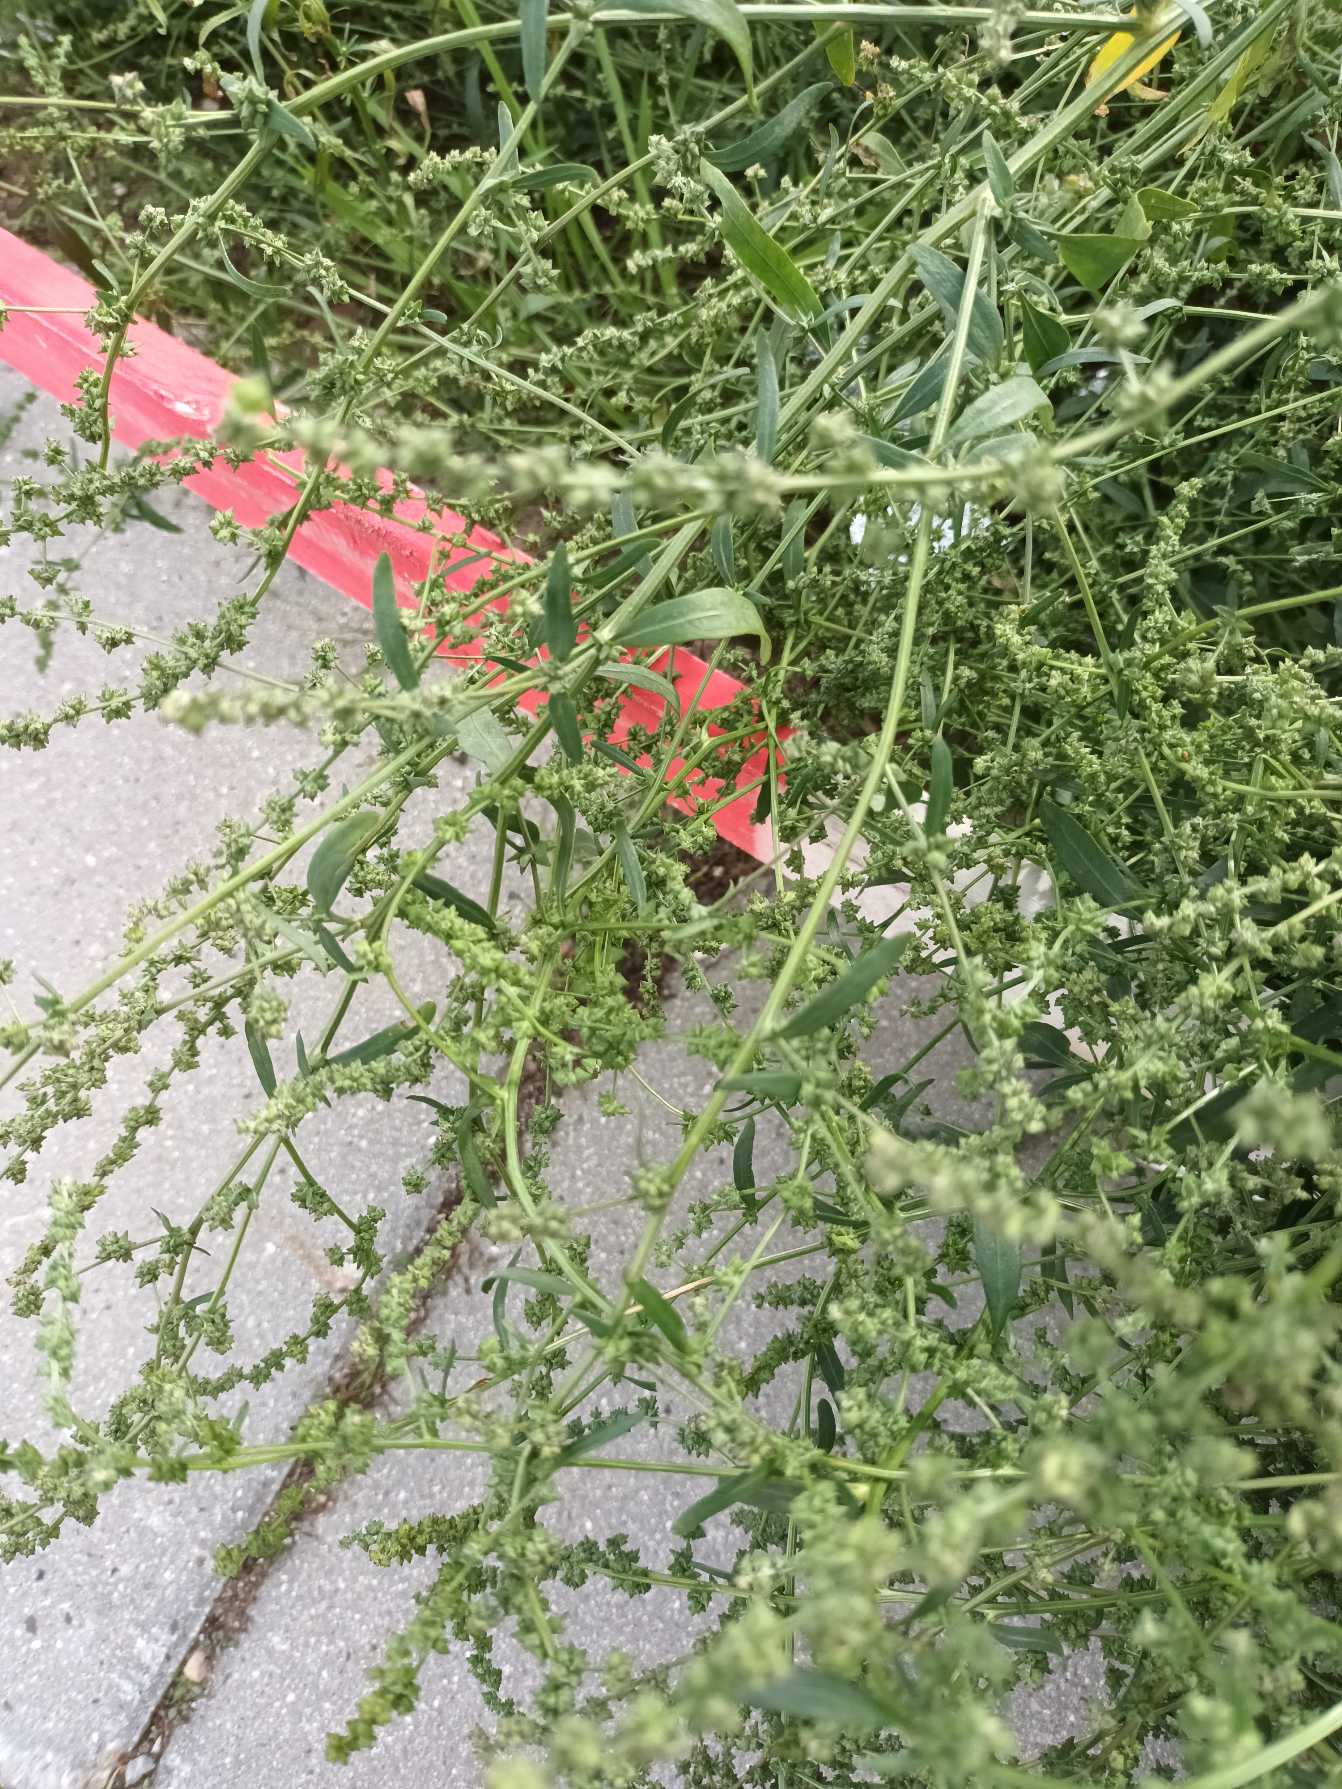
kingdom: Plantae
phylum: Tracheophyta
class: Magnoliopsida
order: Caryophyllales
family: Amaranthaceae
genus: Atriplex
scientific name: Atriplex patula
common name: Svine-mælde
